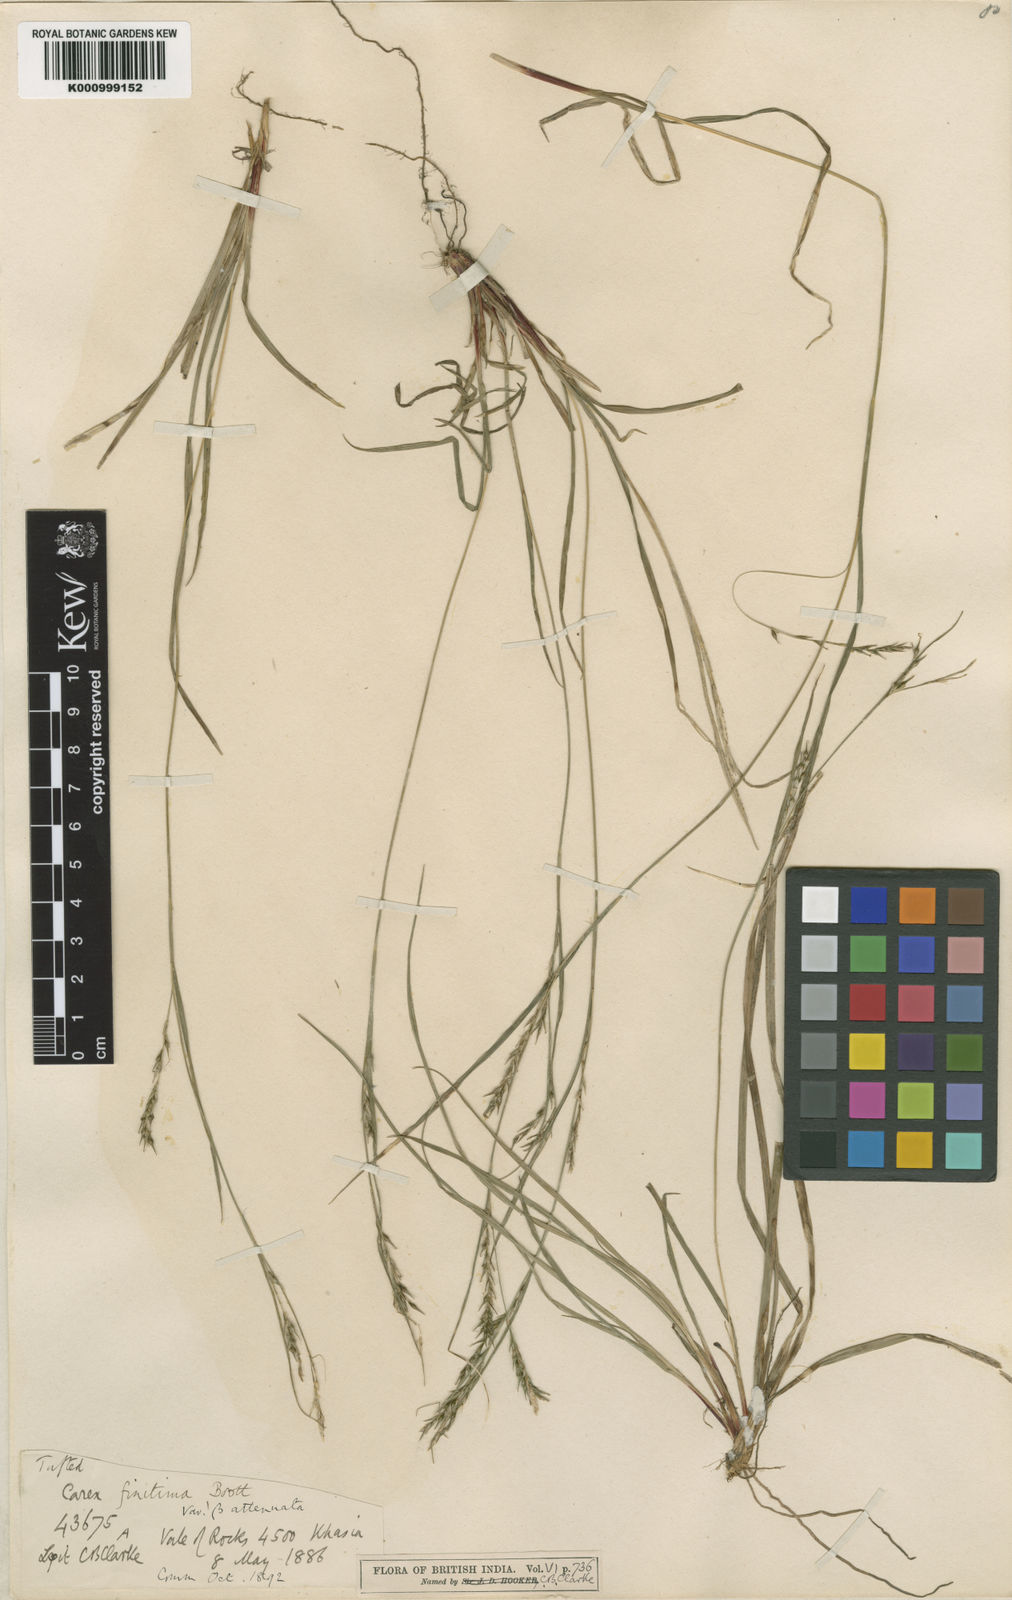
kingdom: Plantae
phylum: Tracheophyta
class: Liliopsida
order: Poales
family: Cyperaceae
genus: Carex
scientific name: Carex finitima
